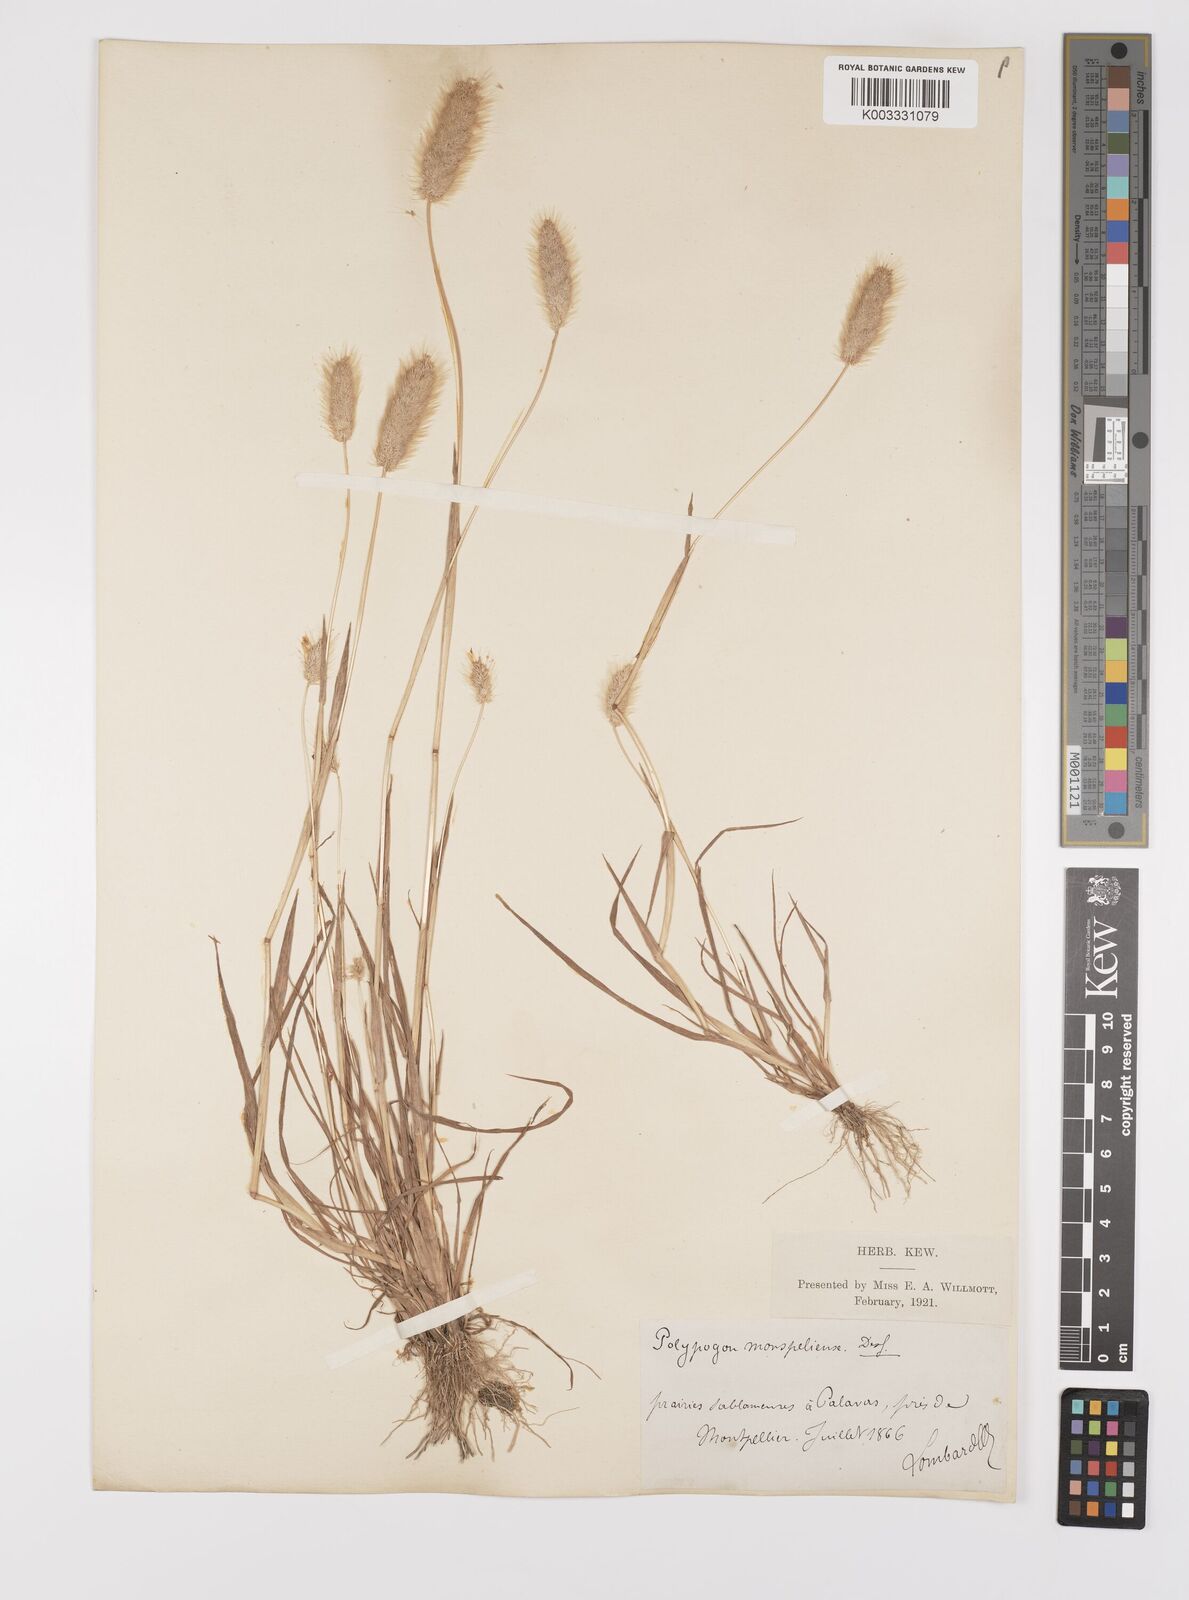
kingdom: Plantae
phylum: Tracheophyta
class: Liliopsida
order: Poales
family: Poaceae
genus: Polypogon
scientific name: Polypogon monspeliensis
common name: Annual rabbitsfoot grass
